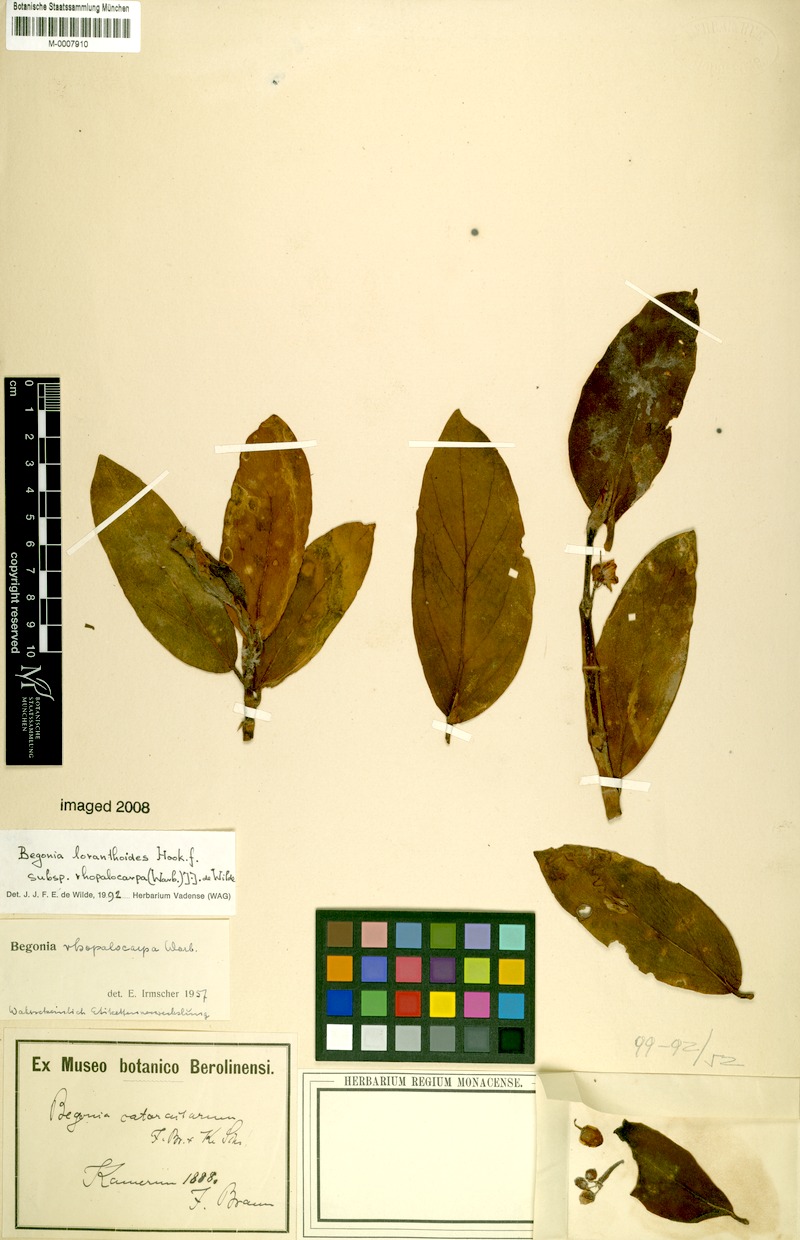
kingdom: Plantae
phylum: Tracheophyta
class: Magnoliopsida
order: Cucurbitales
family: Begoniaceae
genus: Begonia
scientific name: Begonia loranthoides
